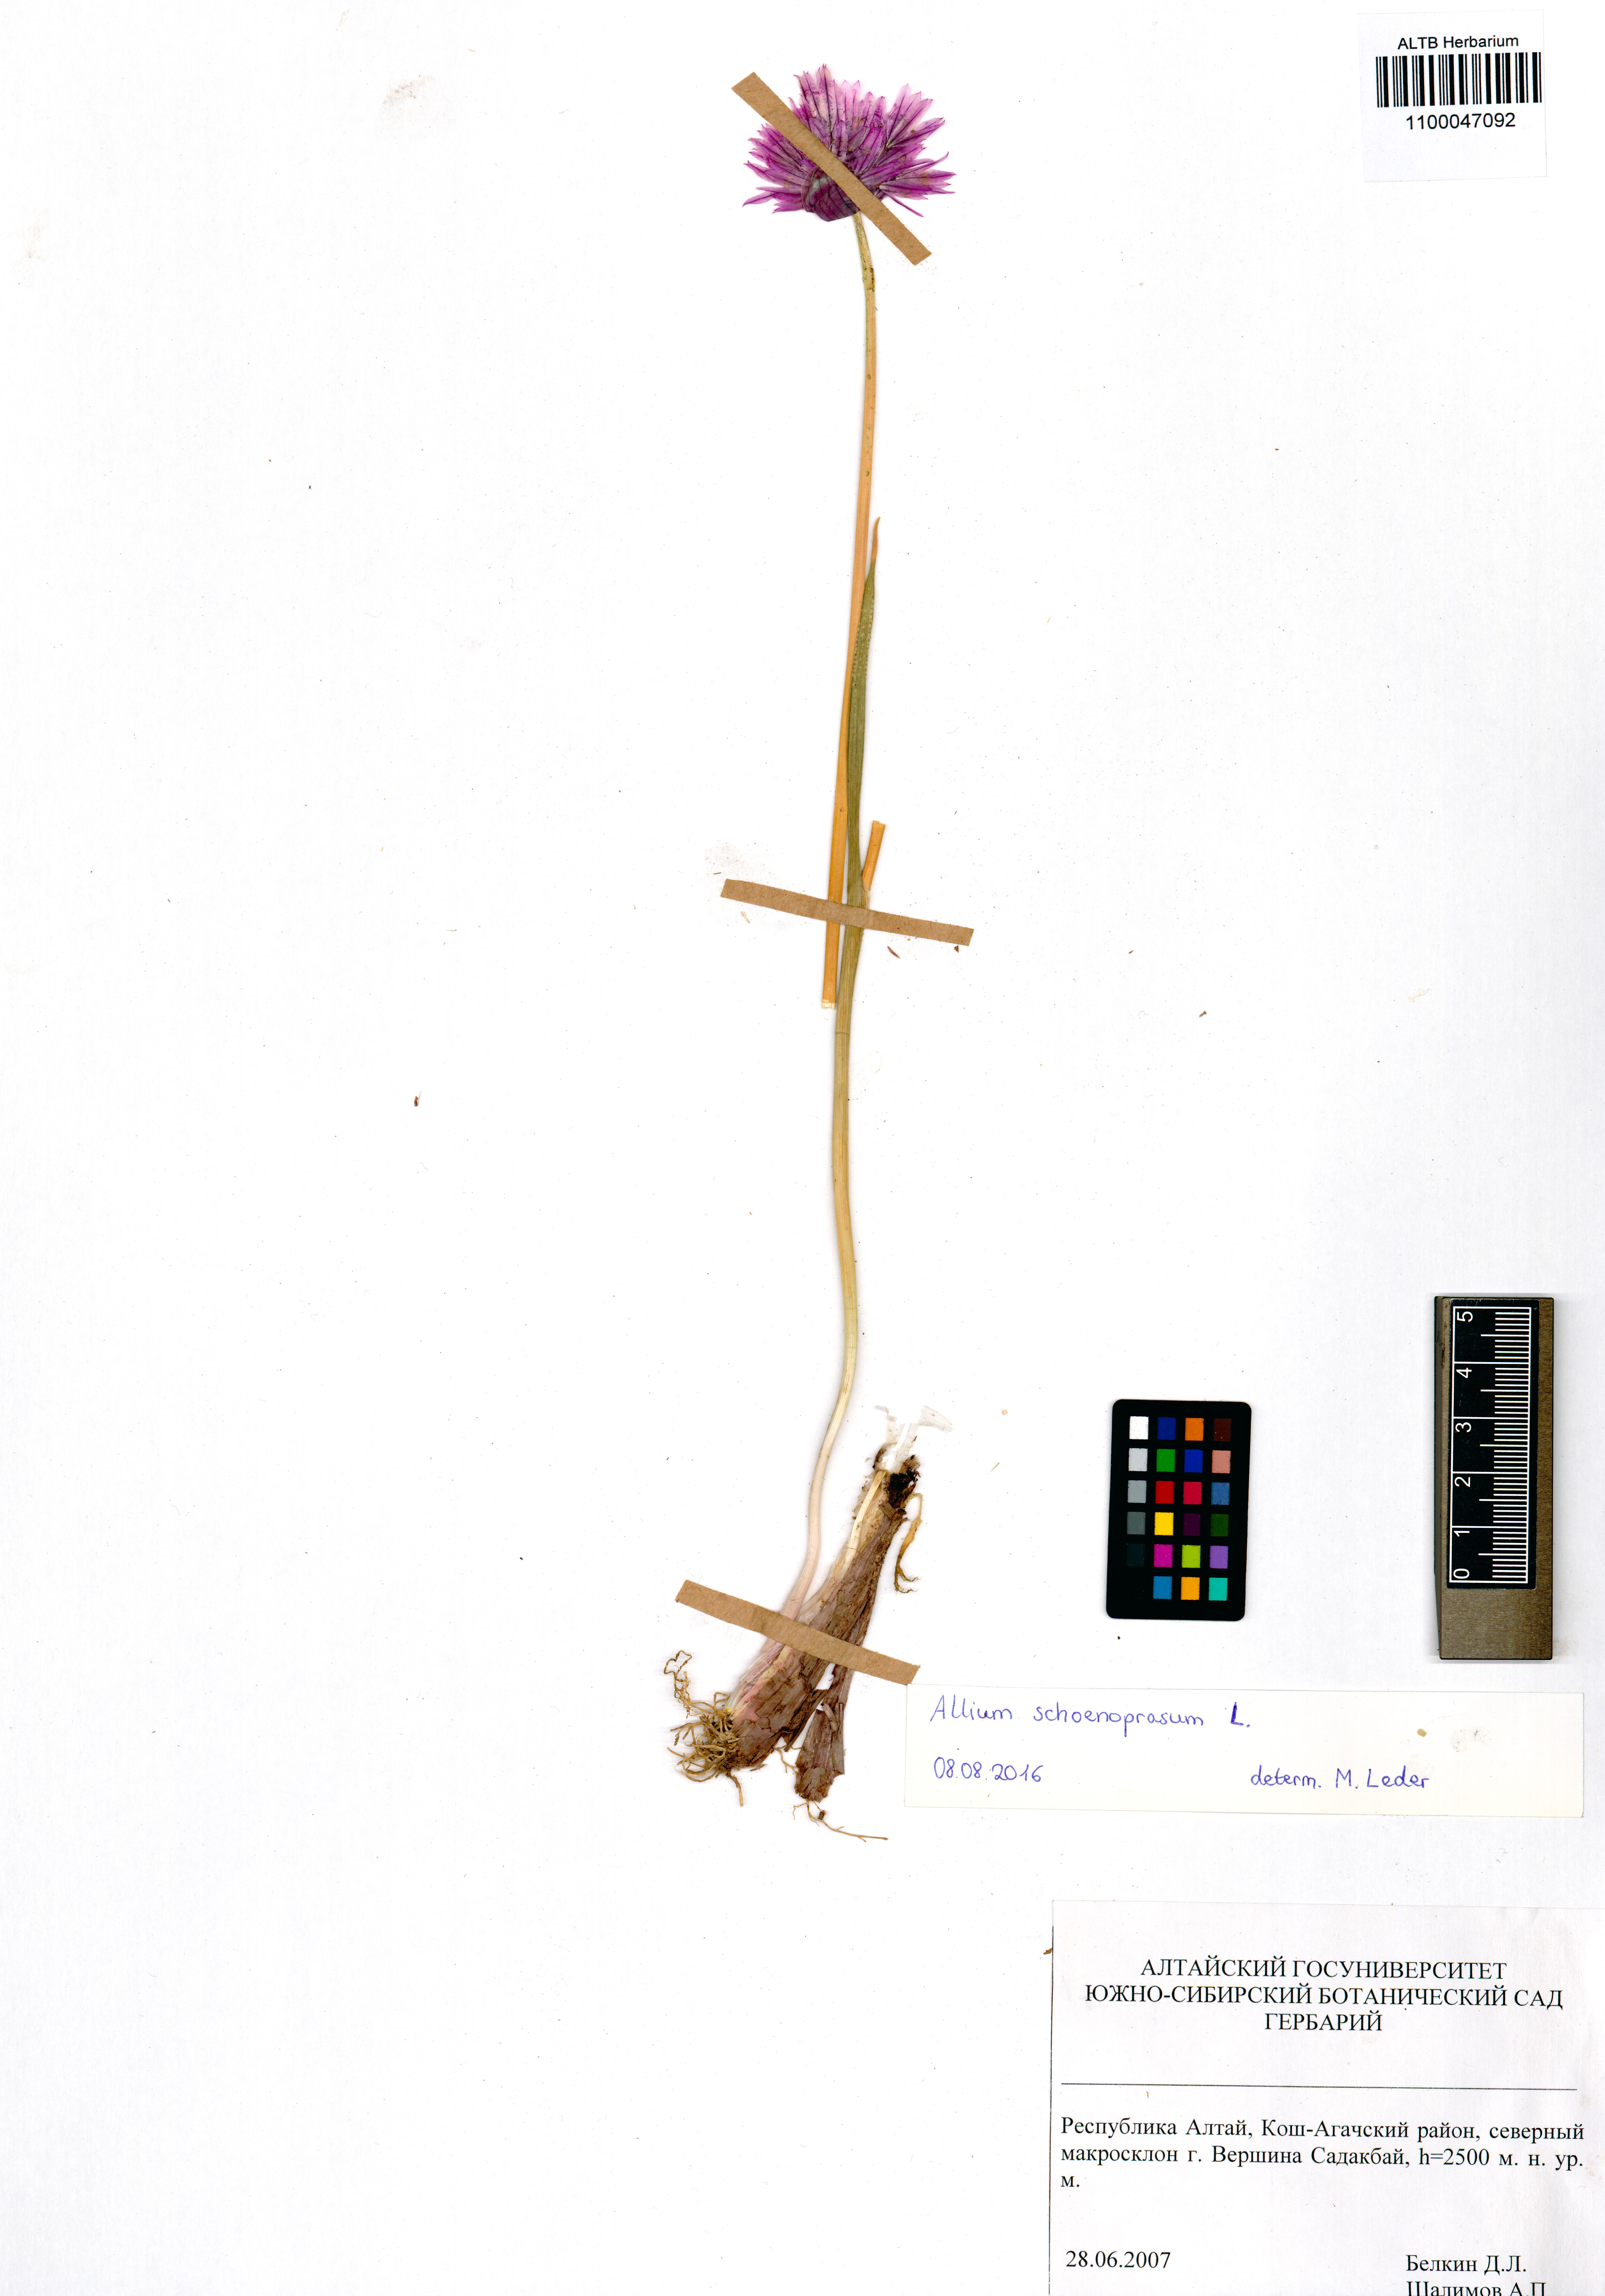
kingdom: Plantae
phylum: Tracheophyta
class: Liliopsida
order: Asparagales
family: Amaryllidaceae
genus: Allium
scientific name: Allium schoenoprasum
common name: Chives
